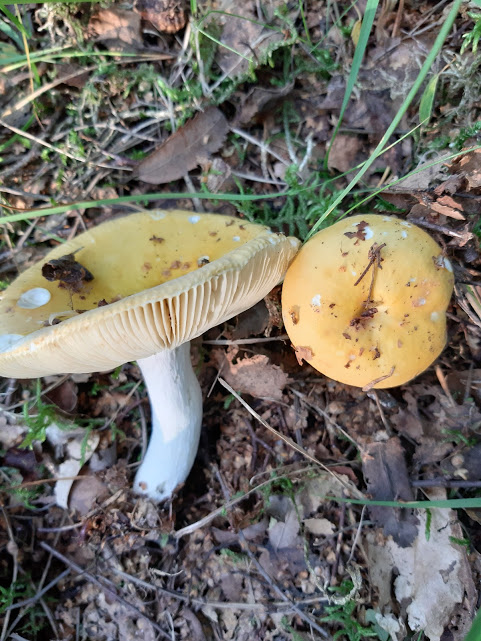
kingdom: Fungi
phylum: Basidiomycota
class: Agaricomycetes
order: Russulales
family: Russulaceae
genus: Russula
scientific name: Russula claroflava
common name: birke-skørhat
